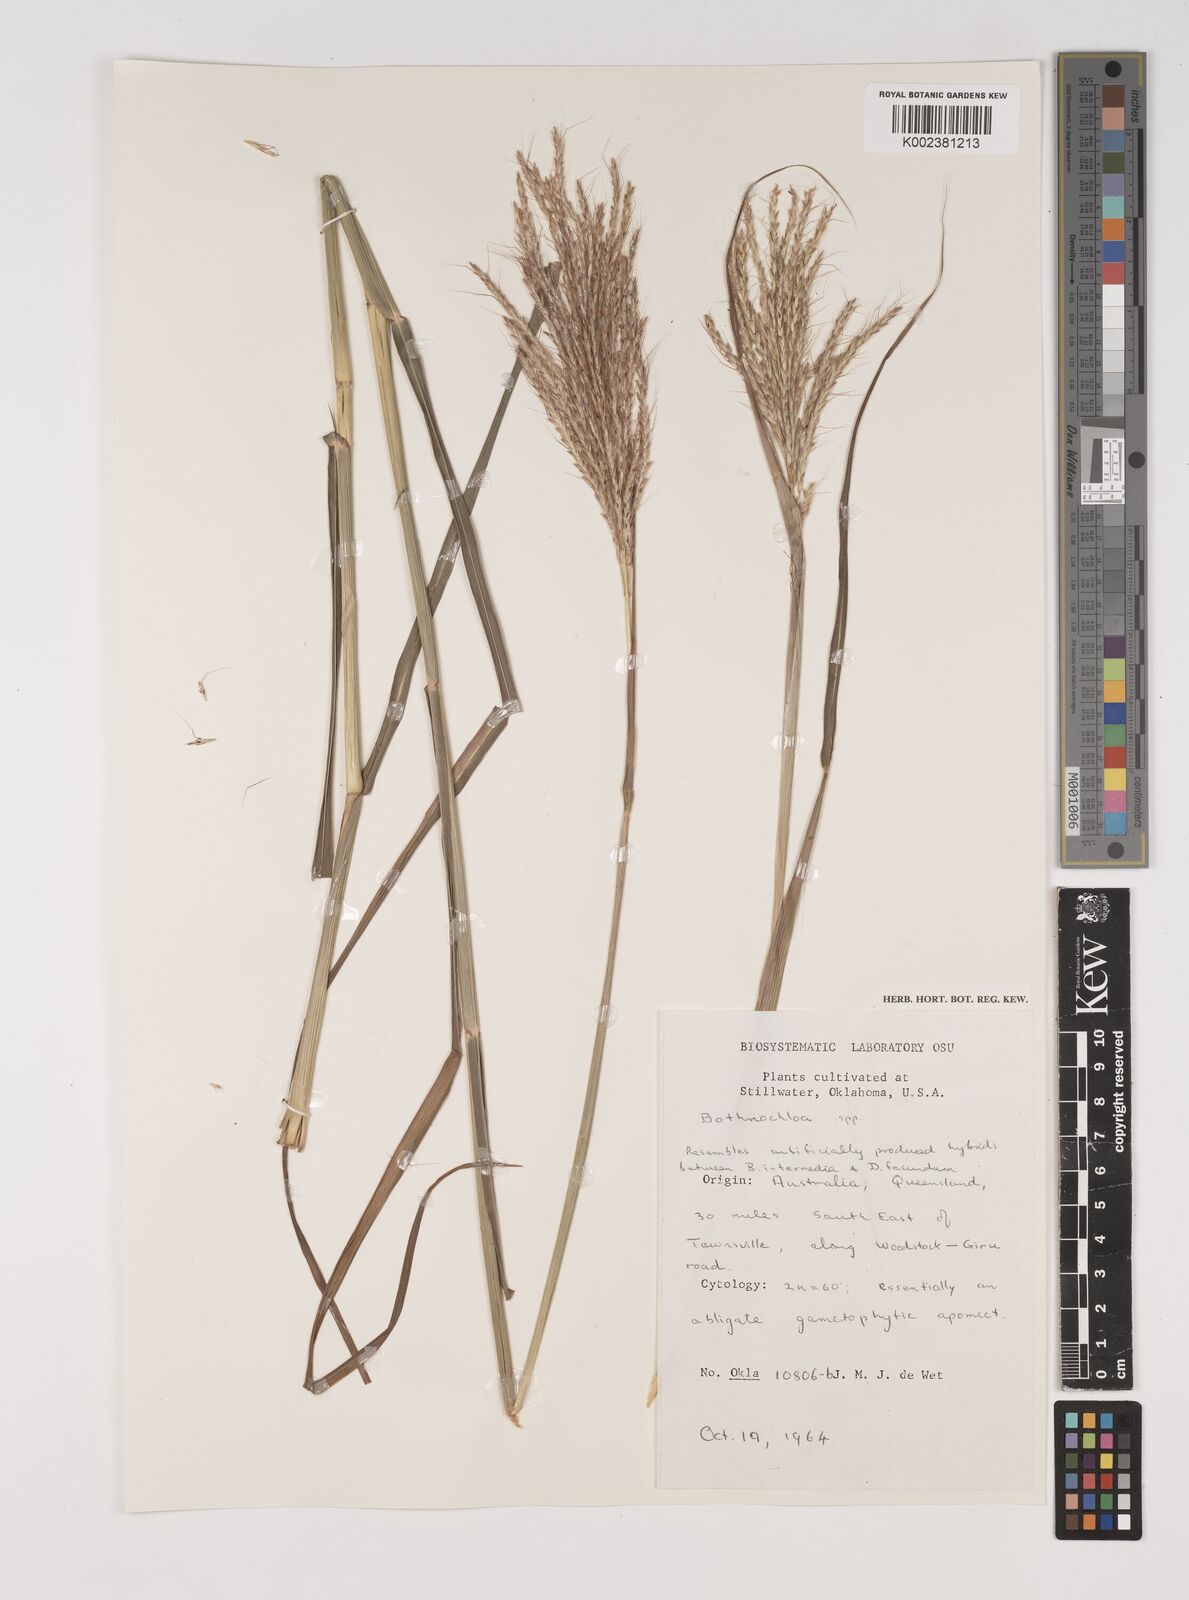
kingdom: Plantae
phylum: Tracheophyta
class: Liliopsida
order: Poales
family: Poaceae
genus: Bothriochloa
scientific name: Bothriochloa
